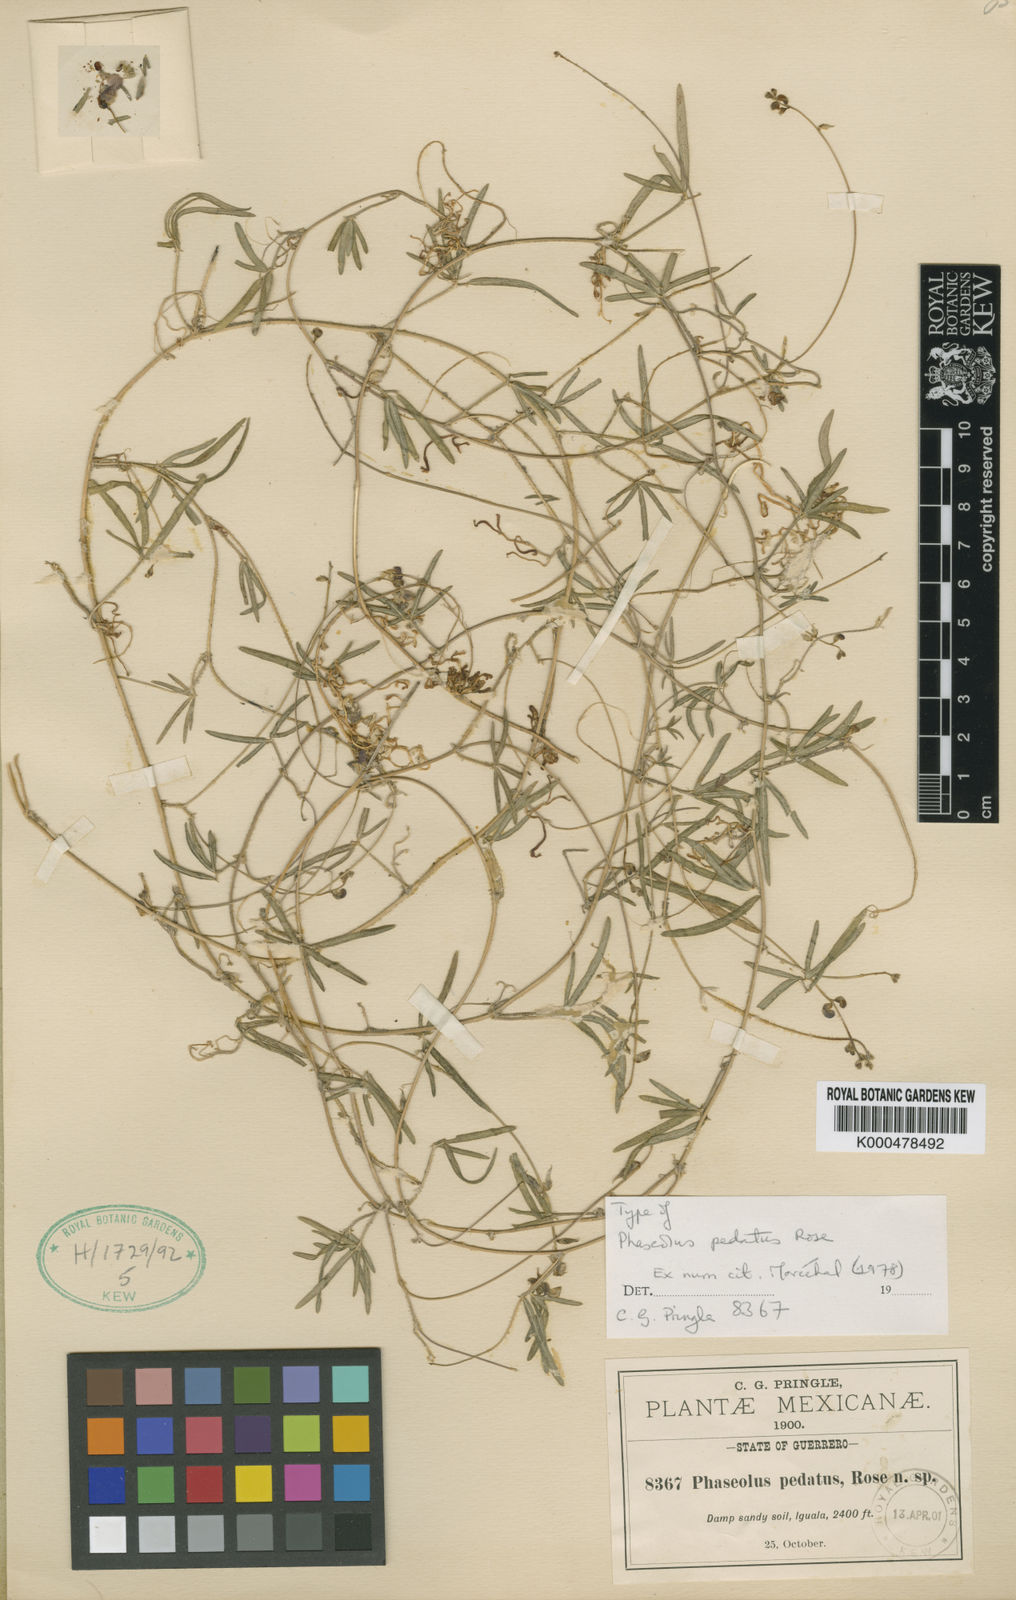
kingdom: Plantae
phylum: Tracheophyta
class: Magnoliopsida
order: Fabales
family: Fabaceae
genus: Macroptilium
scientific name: Macroptilium
